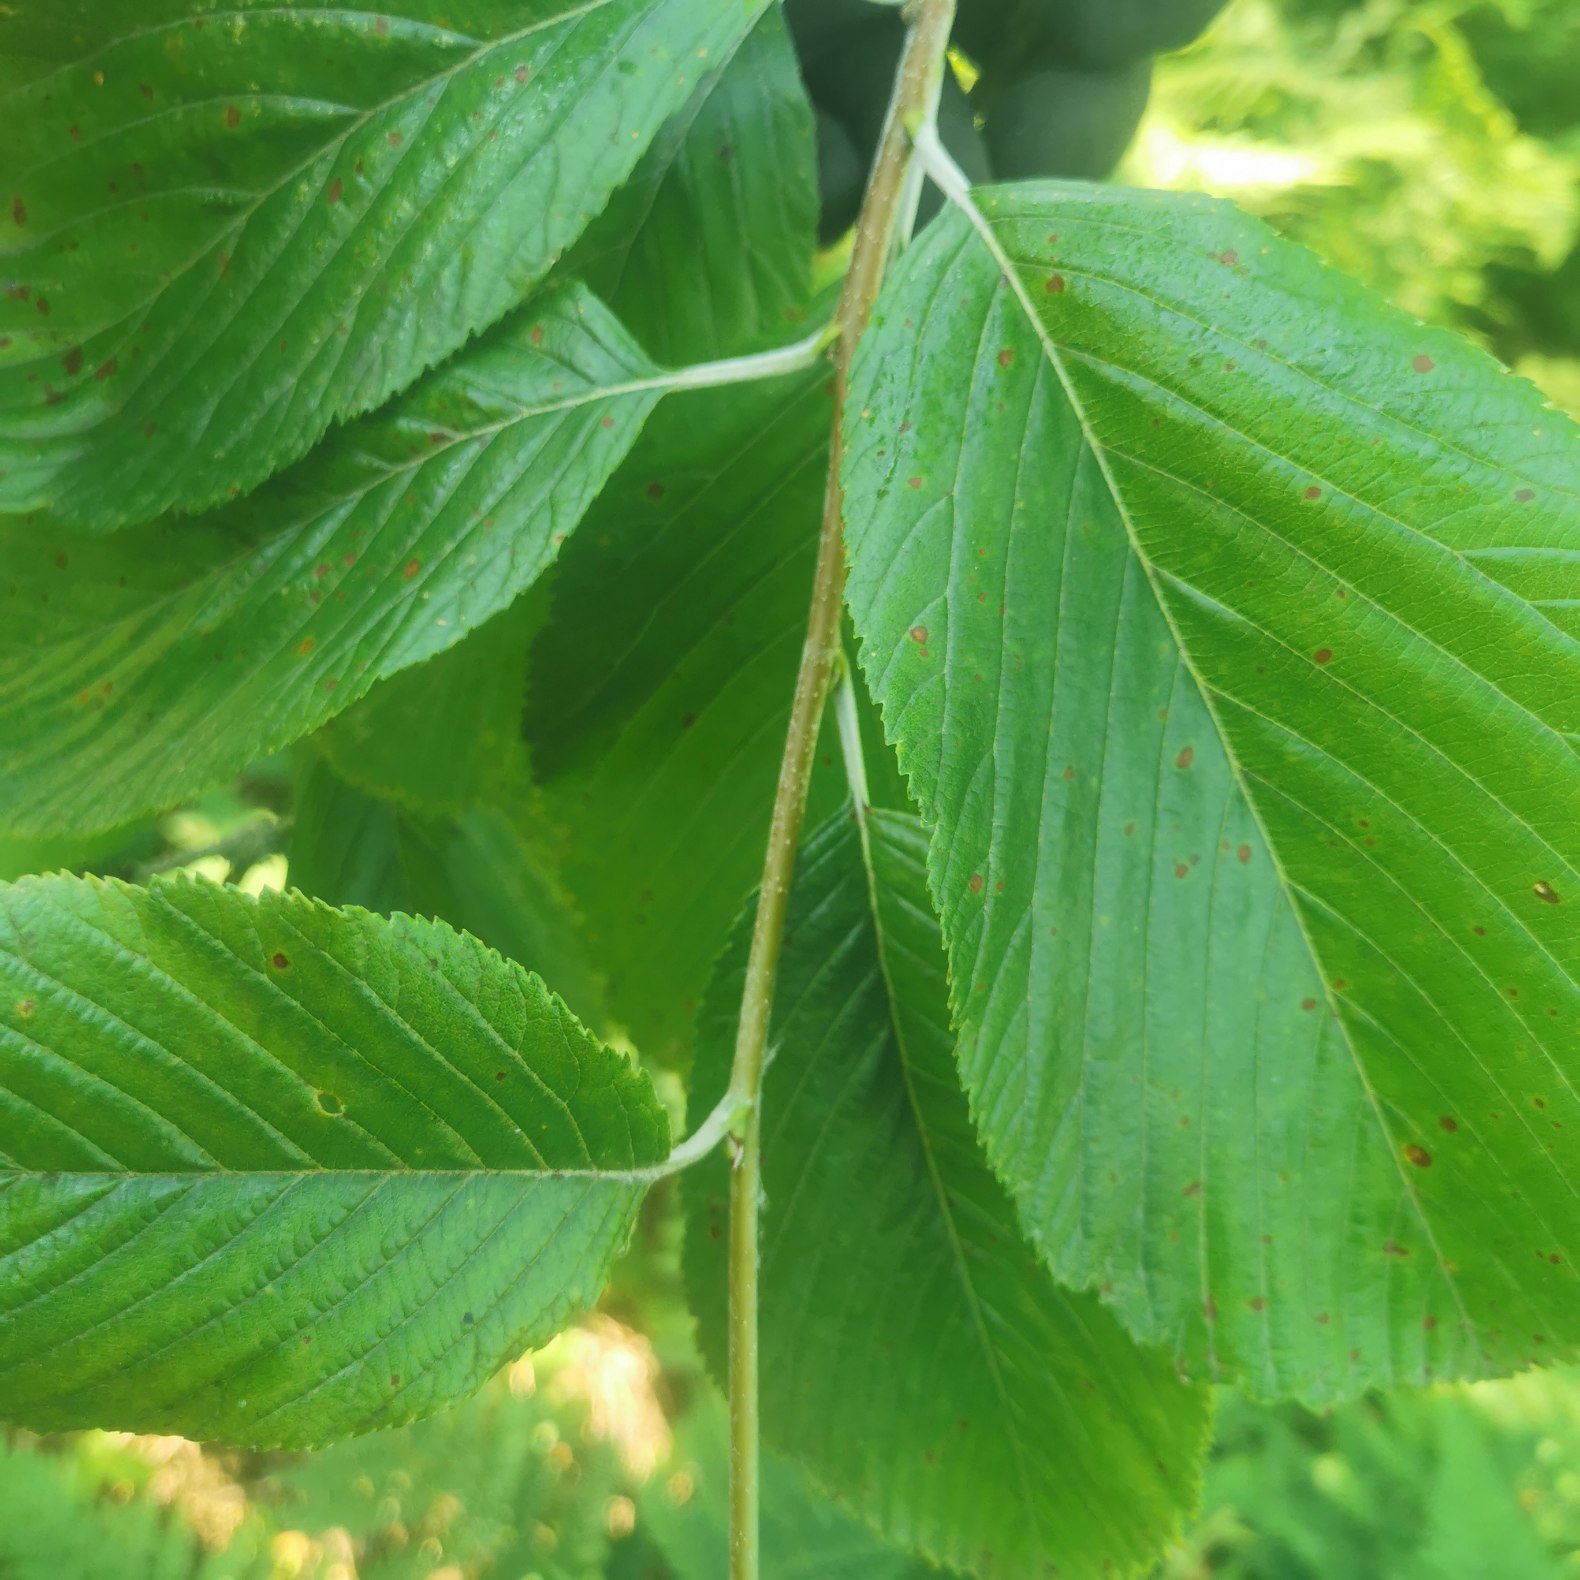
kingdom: Plantae
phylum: Tracheophyta
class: Magnoliopsida
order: Rosales
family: Rosaceae
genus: Aria
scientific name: Aria edulis
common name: Aksel-røn
